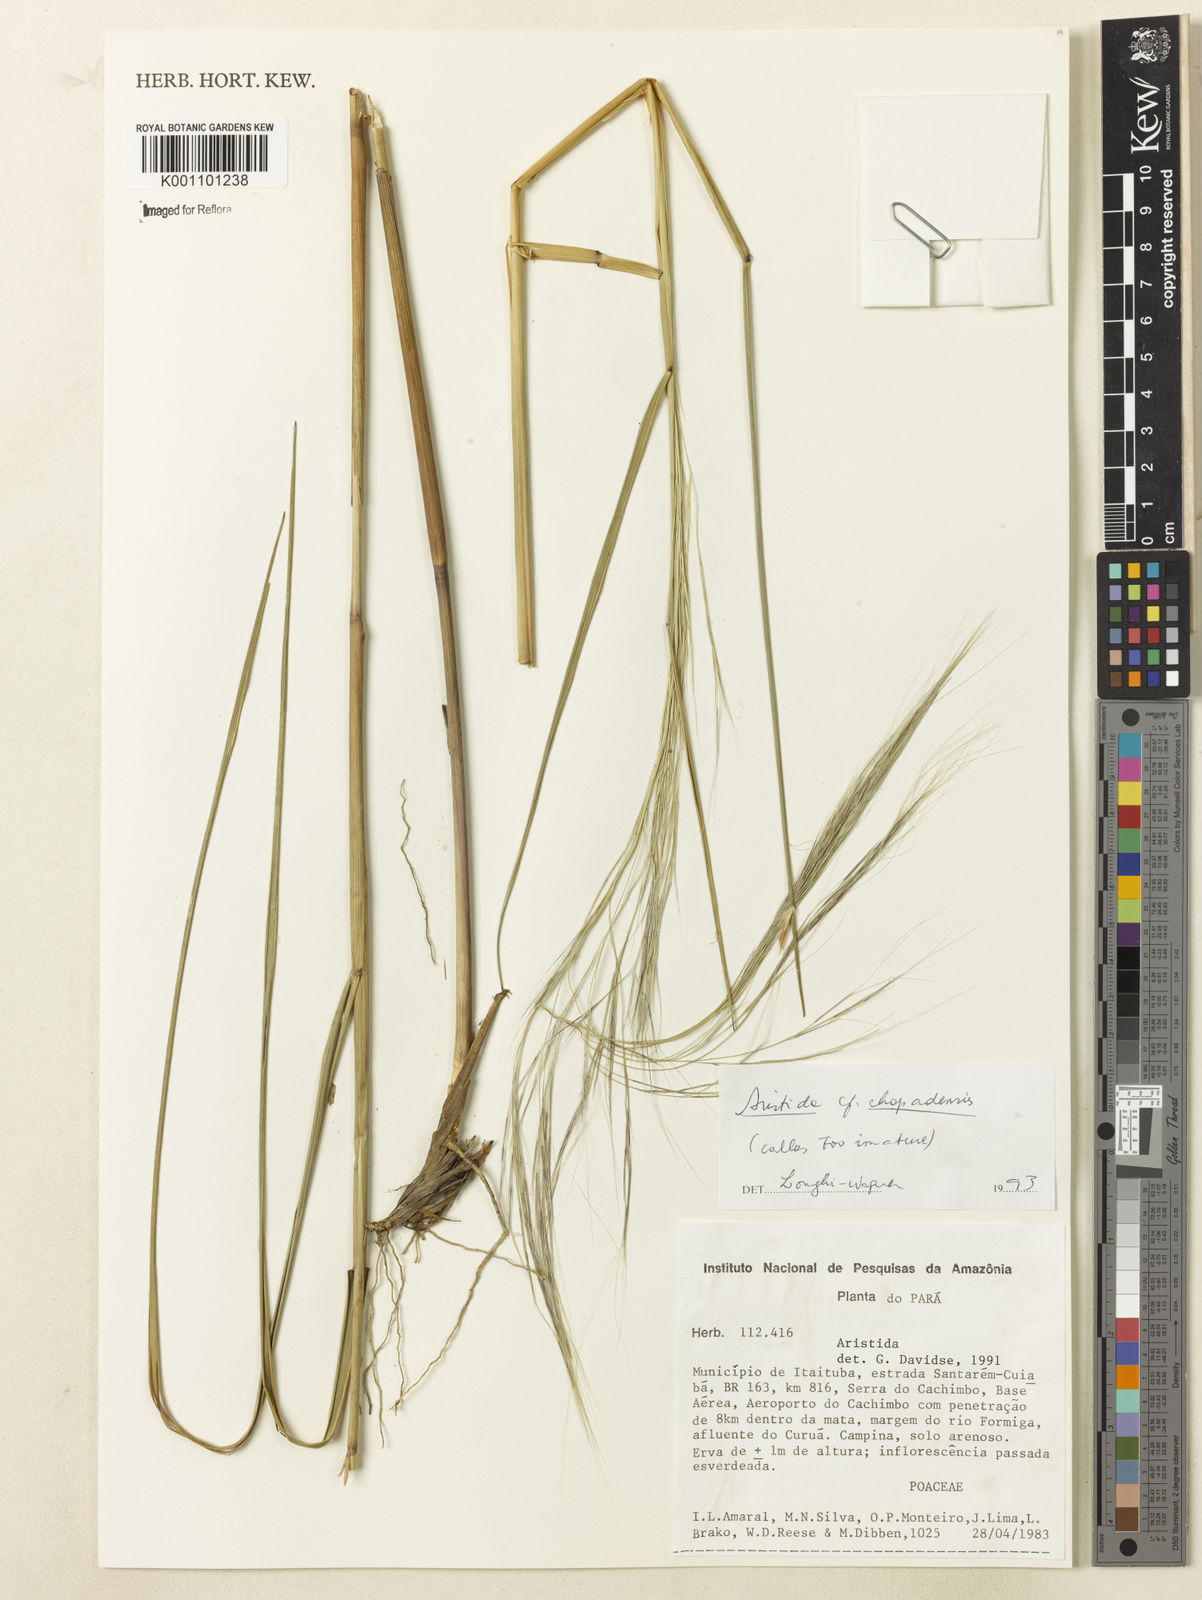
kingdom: Plantae
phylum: Tracheophyta
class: Liliopsida
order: Poales
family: Poaceae
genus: Aristida
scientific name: Aristida chapadensis
